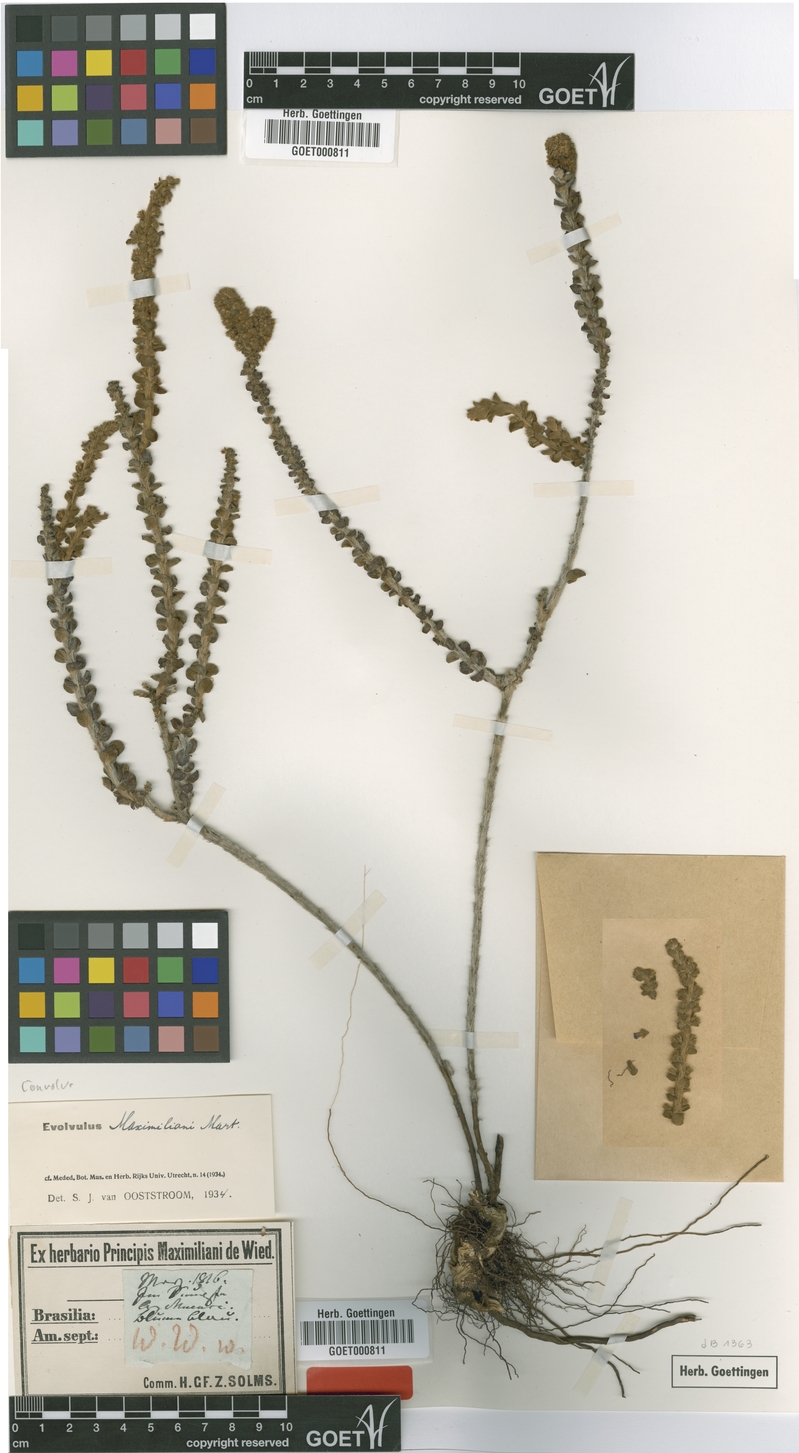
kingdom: Plantae
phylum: Tracheophyta
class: Magnoliopsida
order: Solanales
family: Convolvulaceae
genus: Evolvulus
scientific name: Evolvulus maximiliani
